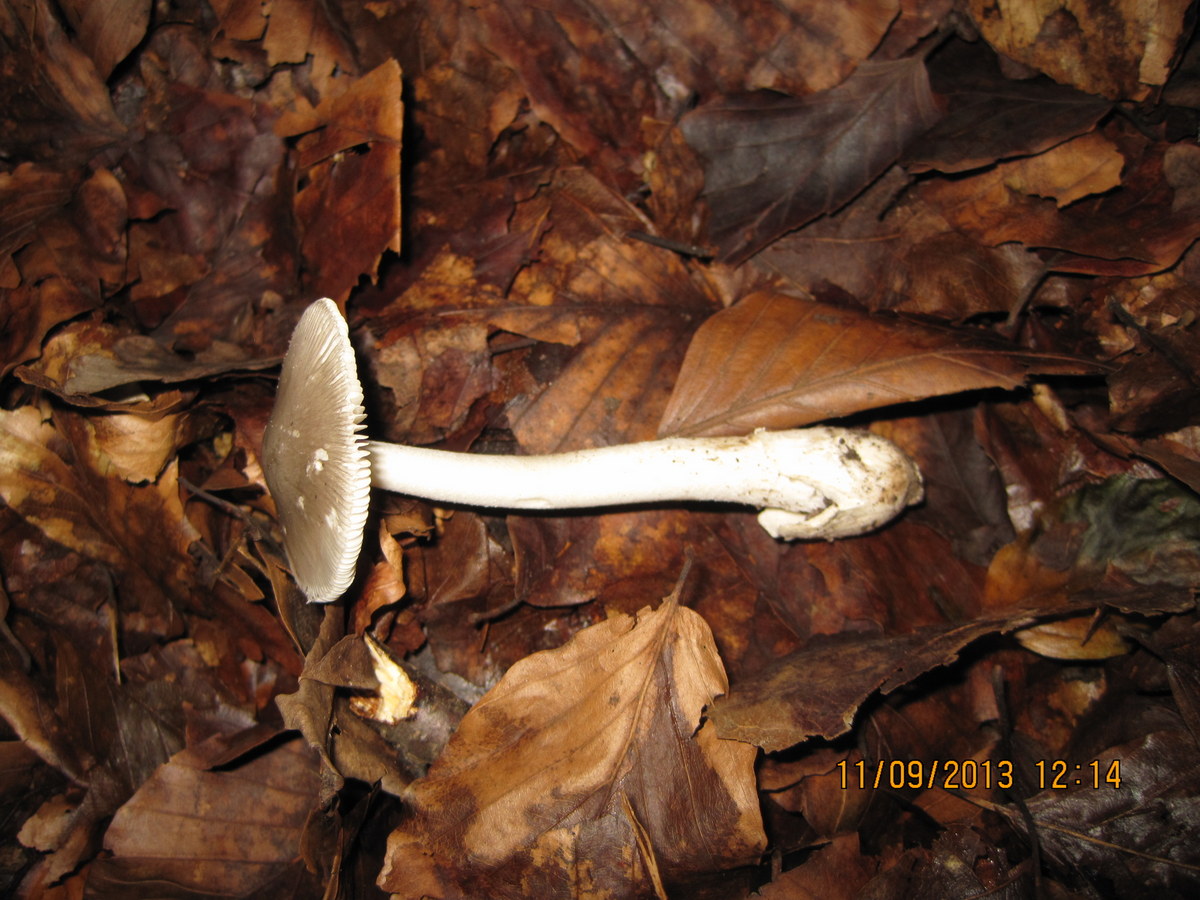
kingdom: Fungi
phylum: Basidiomycota
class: Agaricomycetes
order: Agaricales
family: Amanitaceae
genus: Amanita
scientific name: Amanita vaginata
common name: grå kam-fluesvamp
